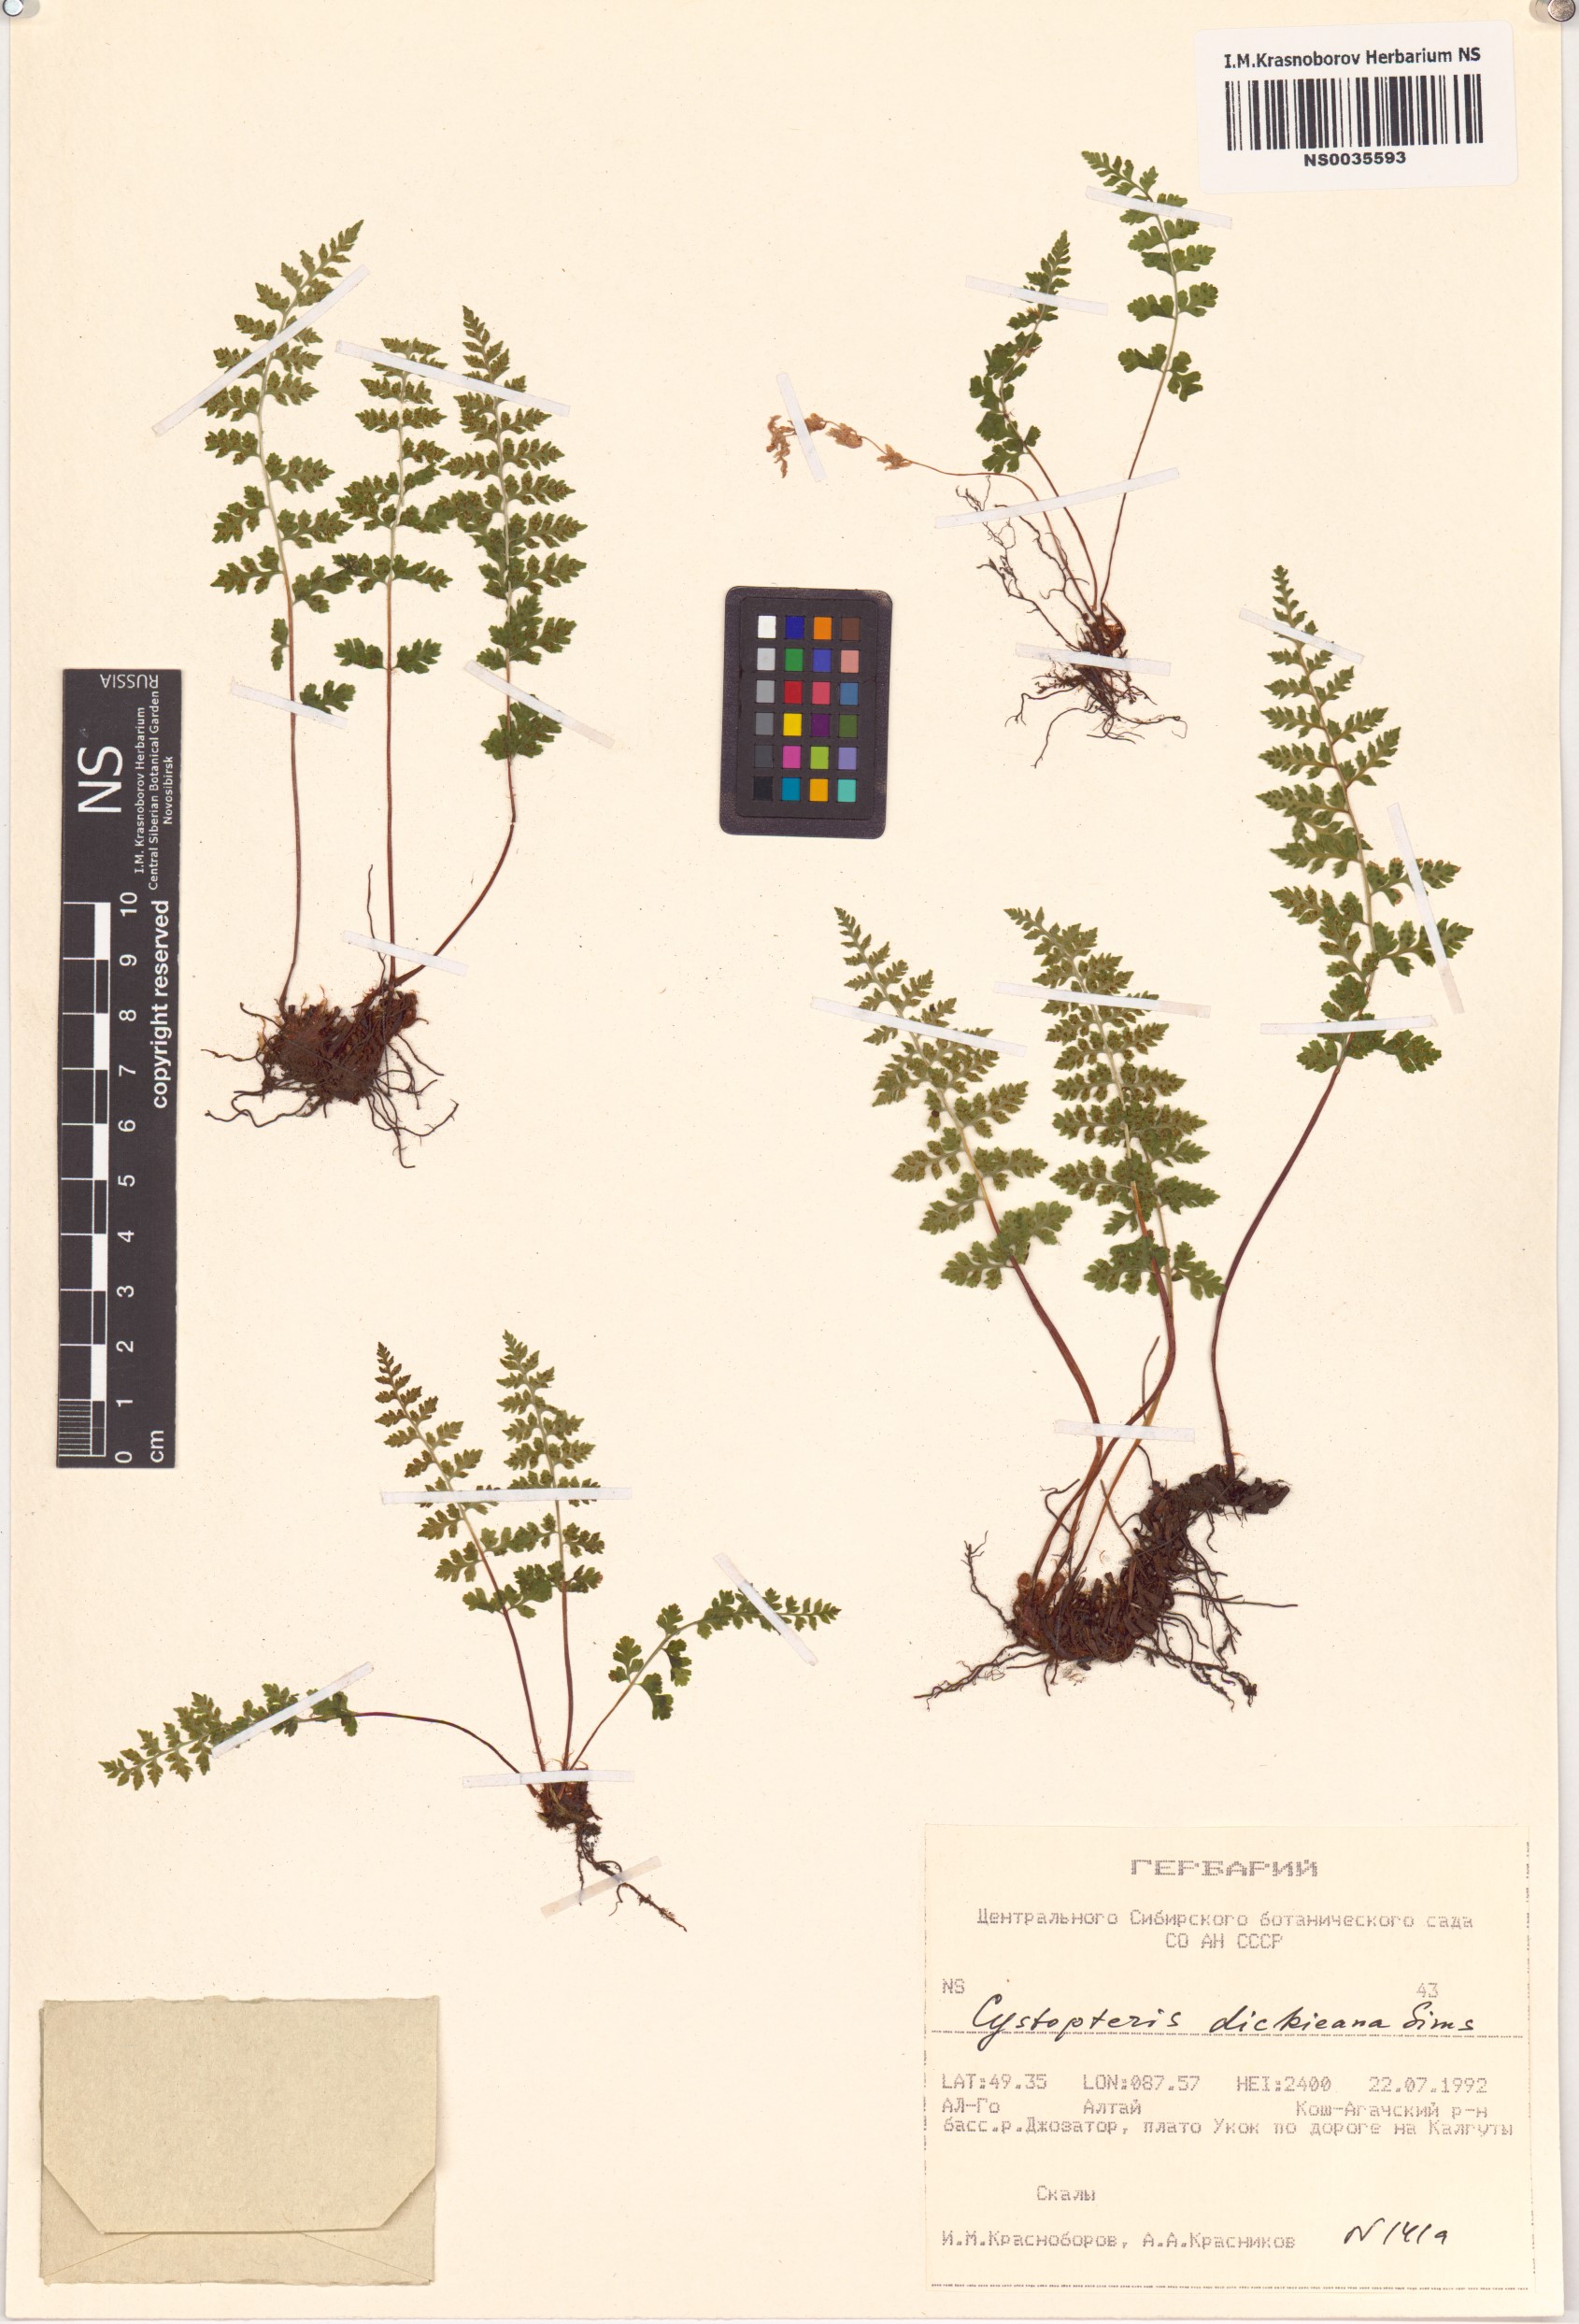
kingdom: Plantae
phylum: Tracheophyta
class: Polypodiopsida
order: Polypodiales
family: Cystopteridaceae
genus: Cystopteris
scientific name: Cystopteris dickieana
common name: Dickie's bladder-fern
